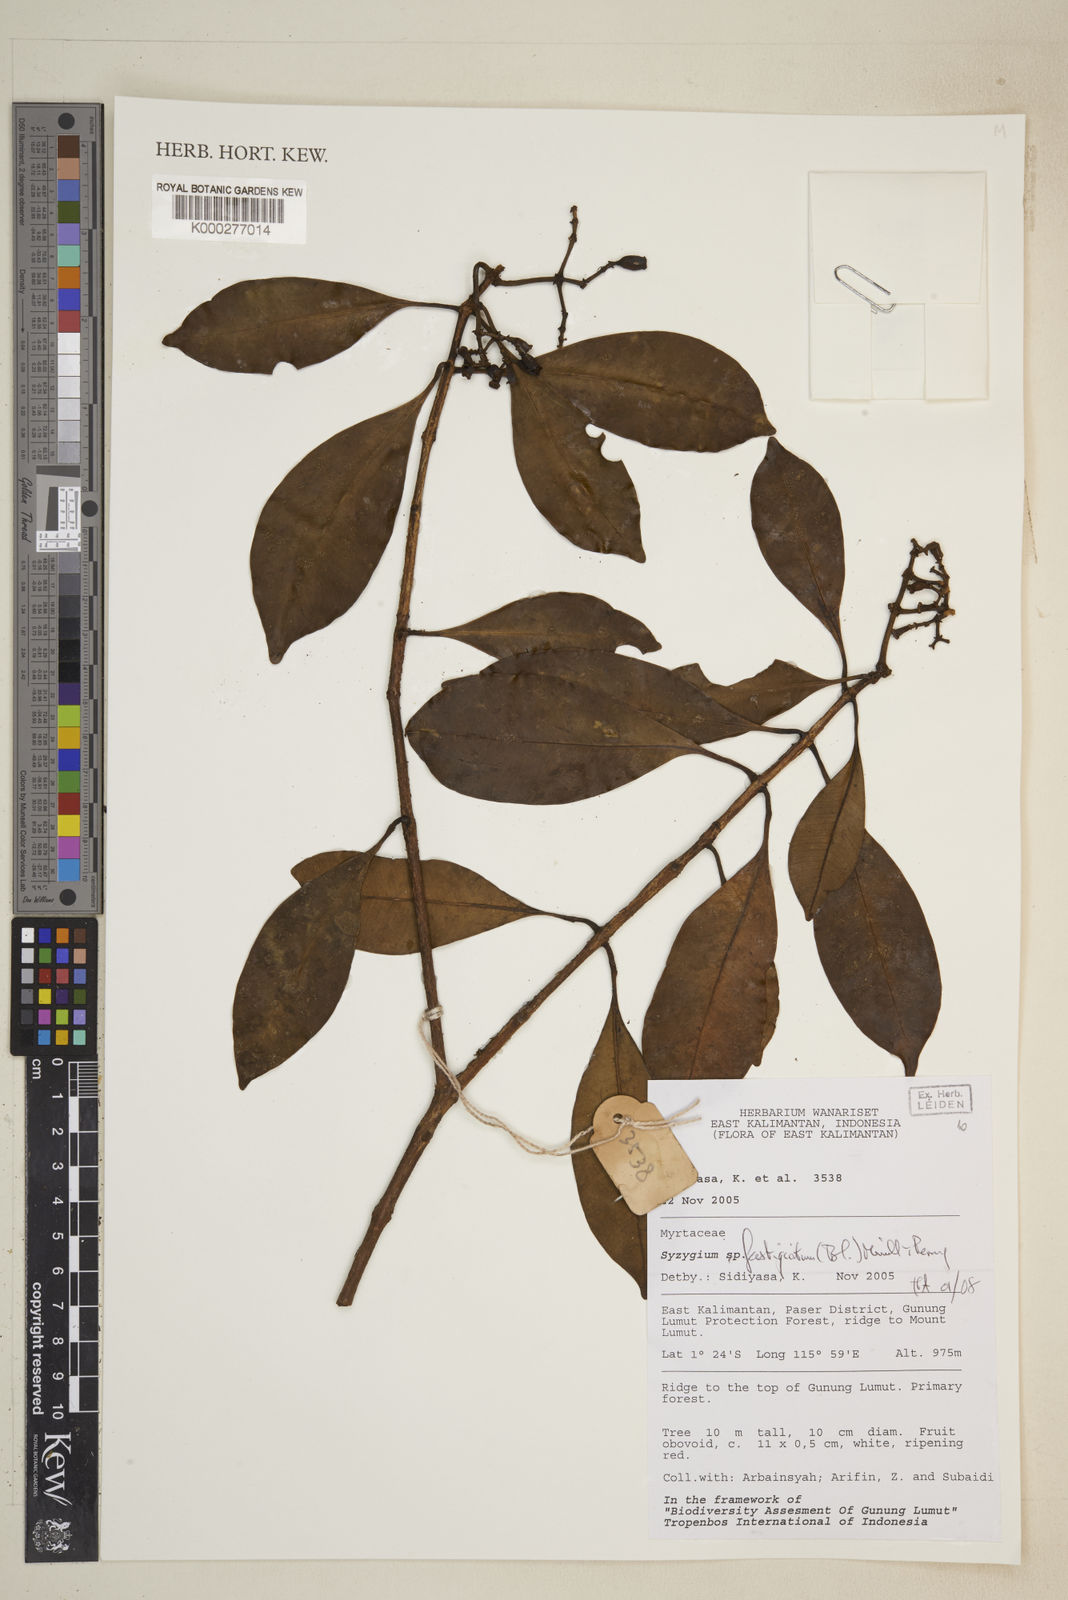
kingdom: Plantae
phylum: Tracheophyta
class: Magnoliopsida
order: Myrtales
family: Myrtaceae
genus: Syzygium
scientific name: Syzygium
